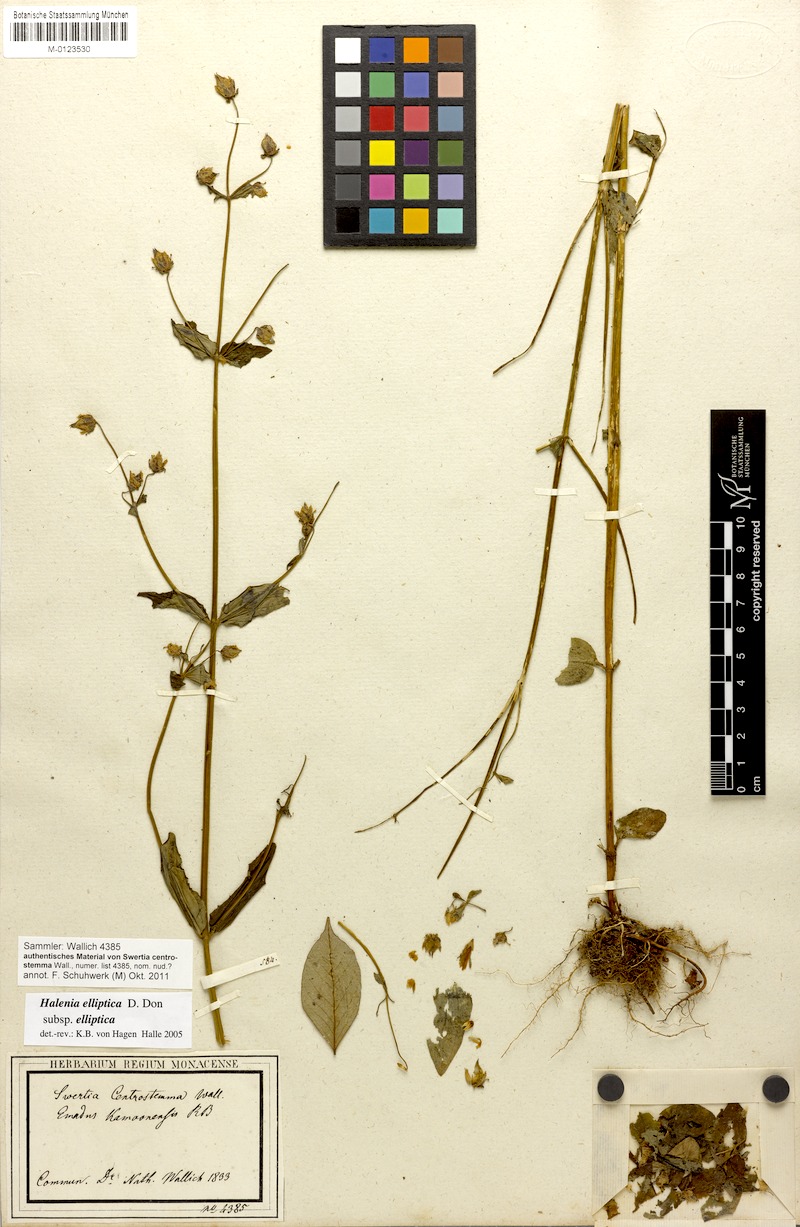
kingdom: Plantae
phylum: Tracheophyta
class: Magnoliopsida
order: Gentianales
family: Gentianaceae
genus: Halenia
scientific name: Halenia elliptica
